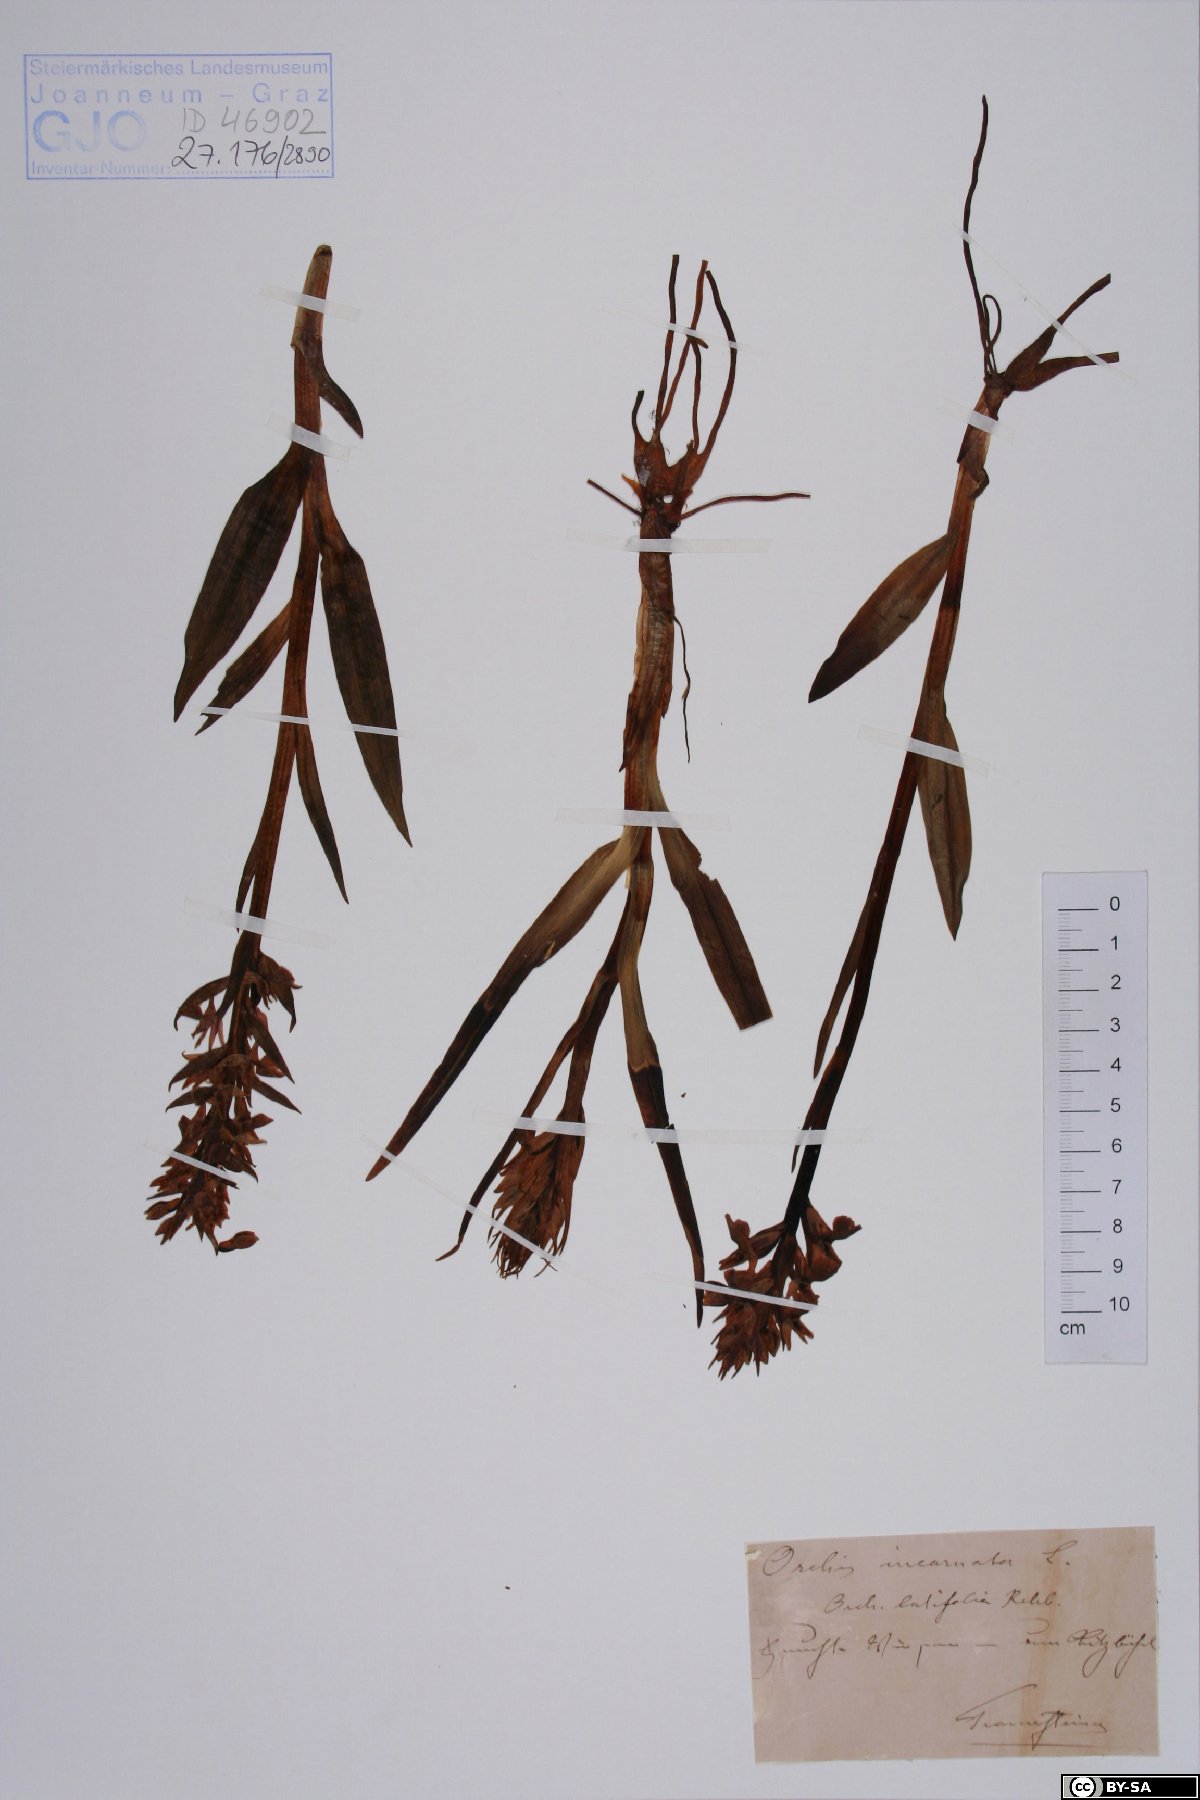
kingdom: Plantae
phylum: Tracheophyta
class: Liliopsida
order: Asparagales
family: Orchidaceae
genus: Dactylorhiza
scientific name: Dactylorhiza incarnata
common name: Early marsh-orchid
